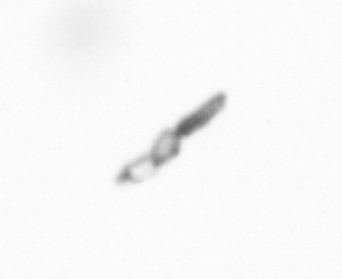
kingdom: Chromista
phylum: Ochrophyta
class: Bacillariophyceae
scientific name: Bacillariophyceae
